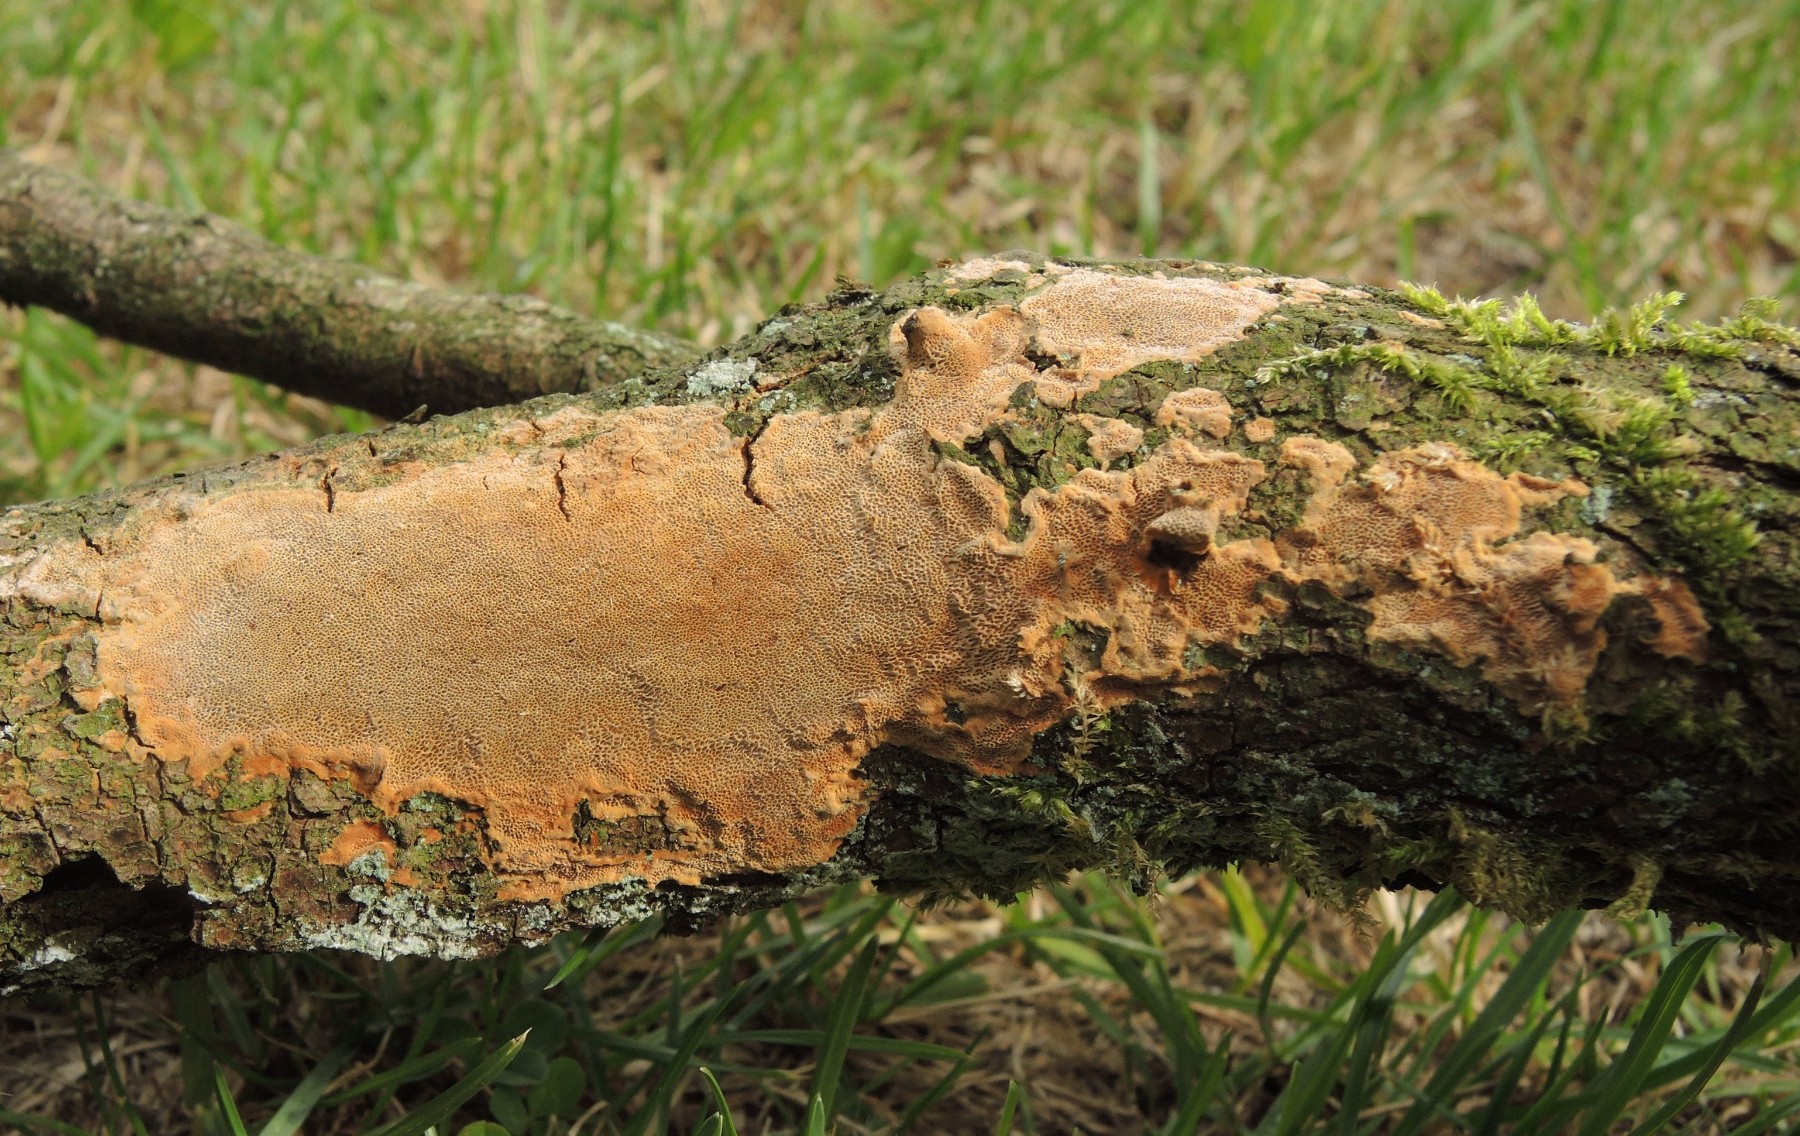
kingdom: Fungi
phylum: Basidiomycota
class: Agaricomycetes
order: Hymenochaetales
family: Hymenochaetaceae
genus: Fuscoporia
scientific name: Fuscoporia ferrea
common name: skorpe-ildporesvamp
